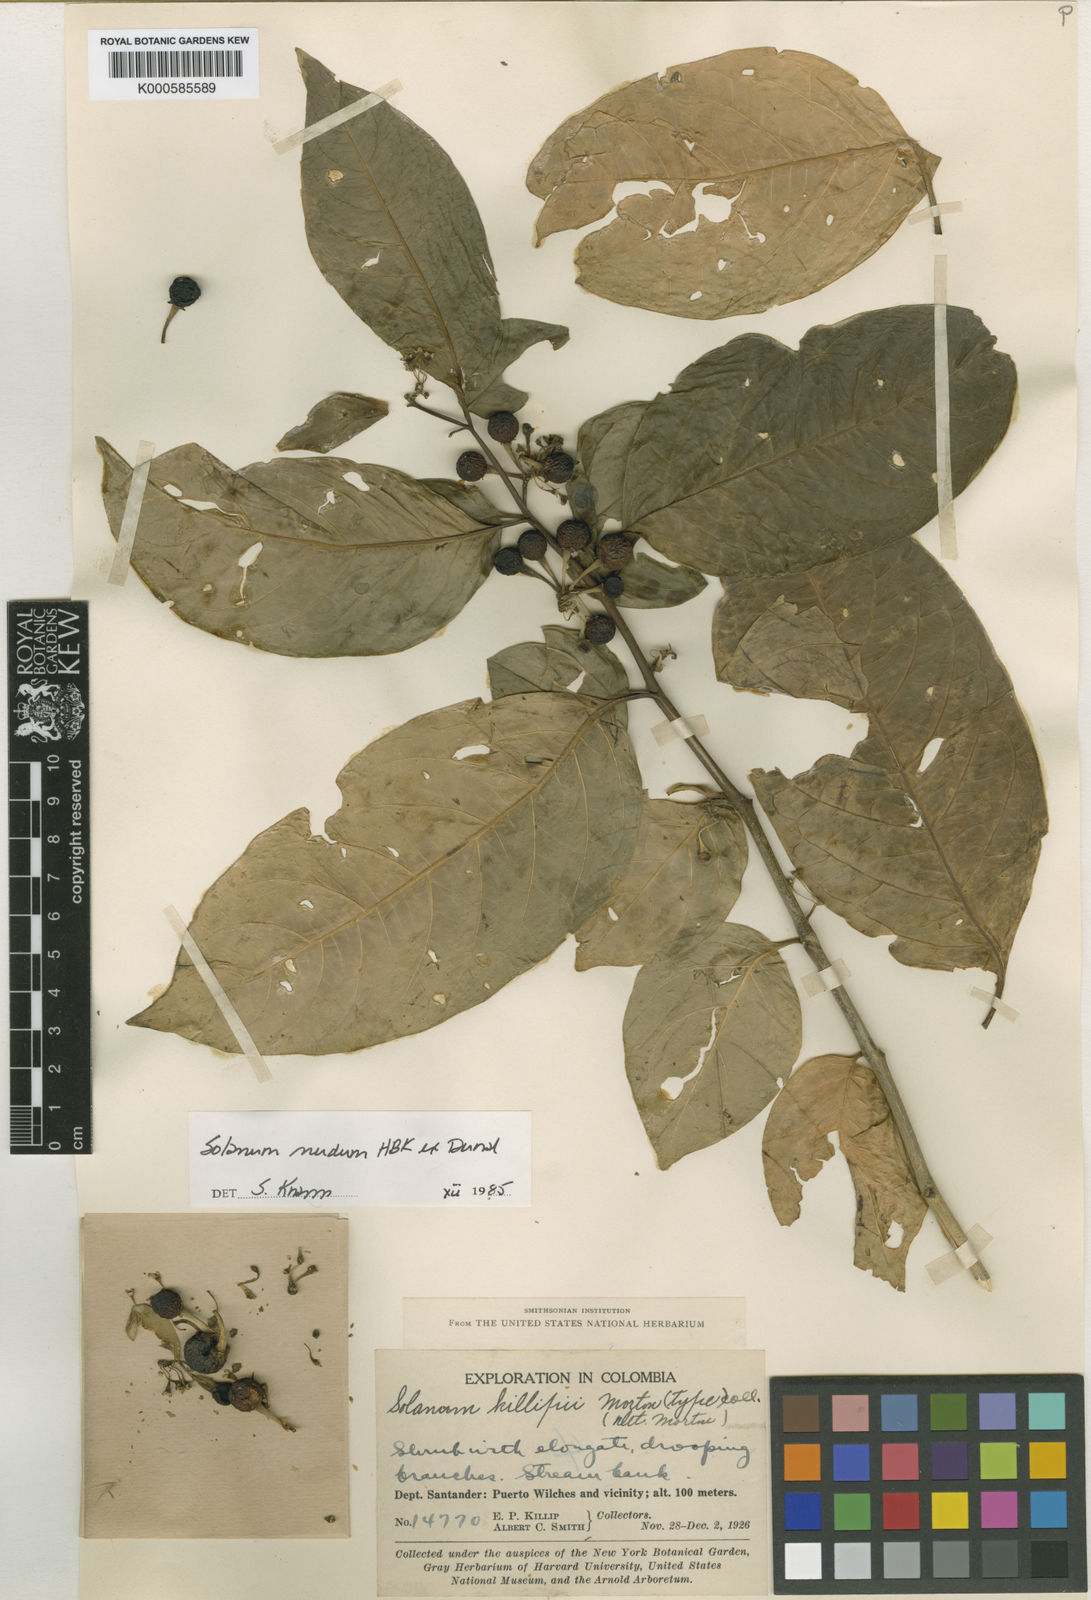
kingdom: Plantae
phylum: Tracheophyta
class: Magnoliopsida
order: Solanales
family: Solanaceae
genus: Solanum
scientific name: Solanum
